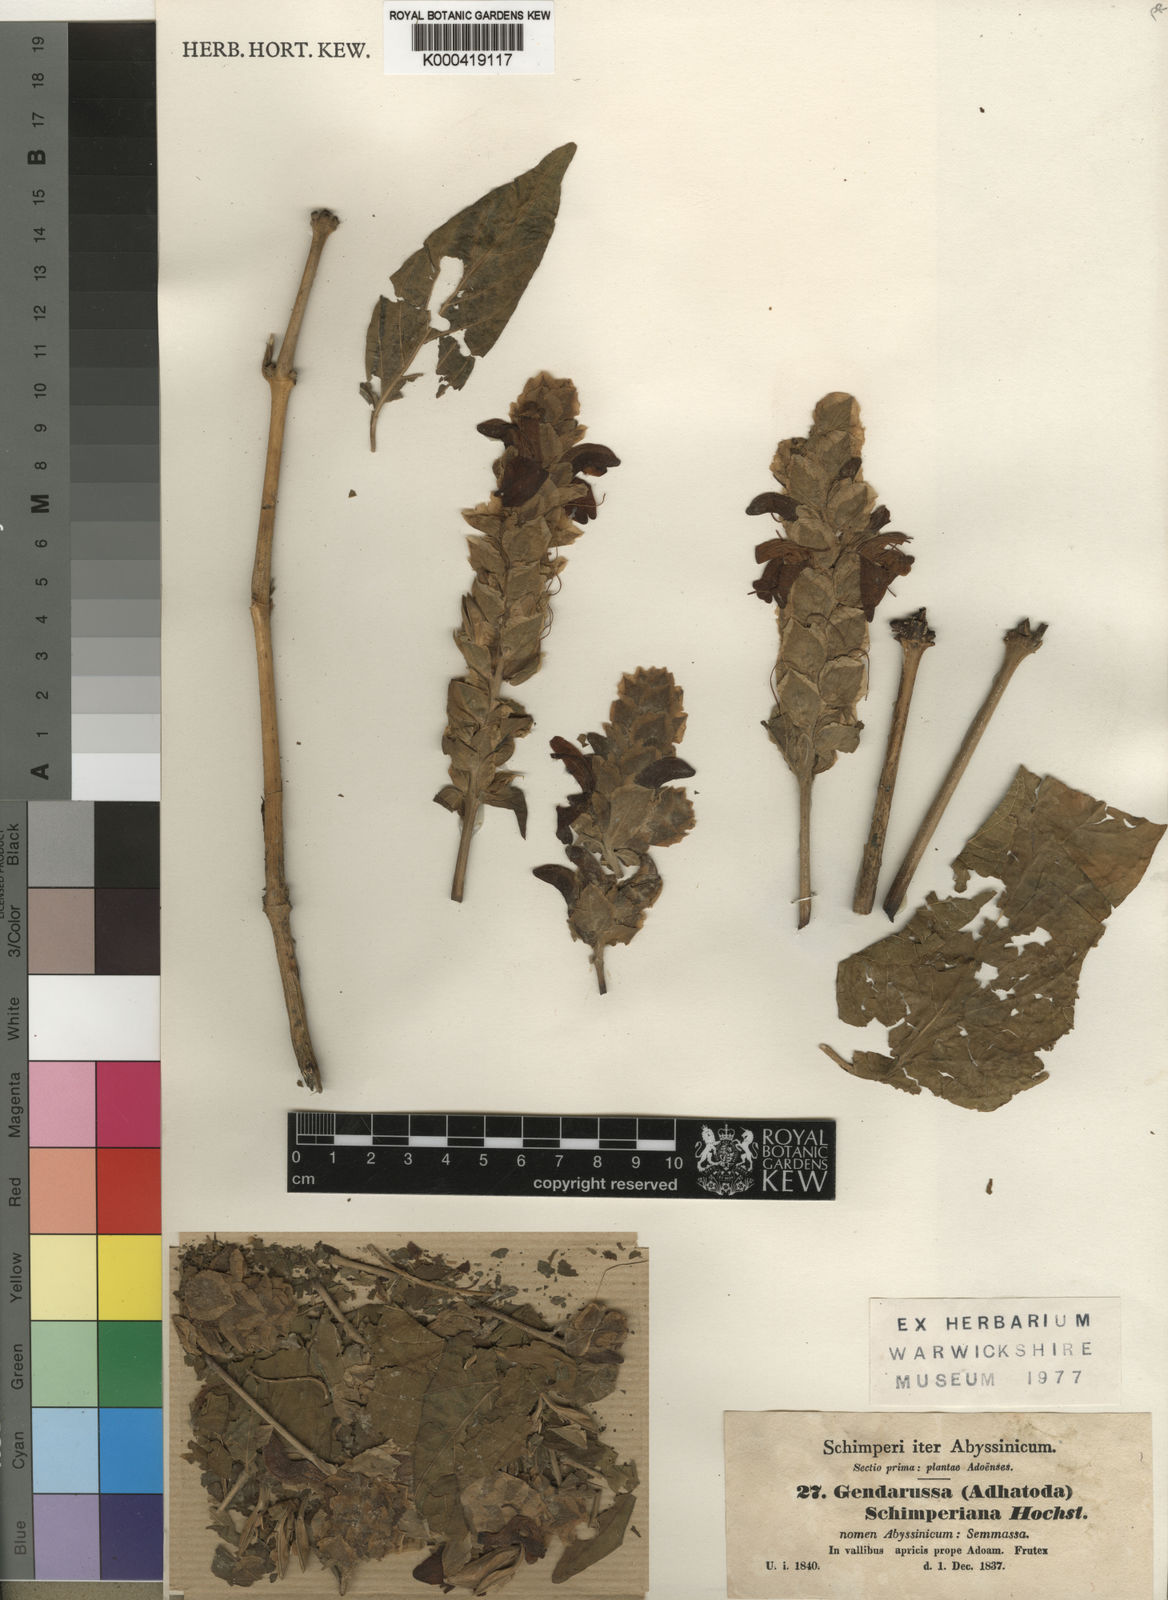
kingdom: Plantae
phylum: Tracheophyta
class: Magnoliopsida
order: Lamiales
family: Acanthaceae
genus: Justicia
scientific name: Justicia schimperiana
